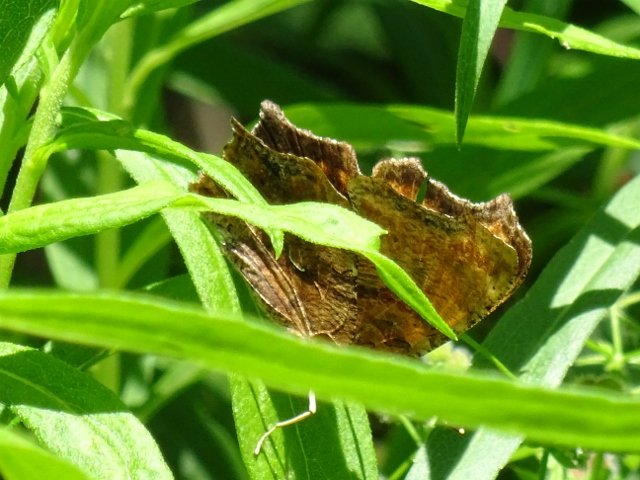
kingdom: Animalia
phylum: Arthropoda
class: Insecta
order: Lepidoptera
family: Nymphalidae
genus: Polygonia
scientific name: Polygonia
